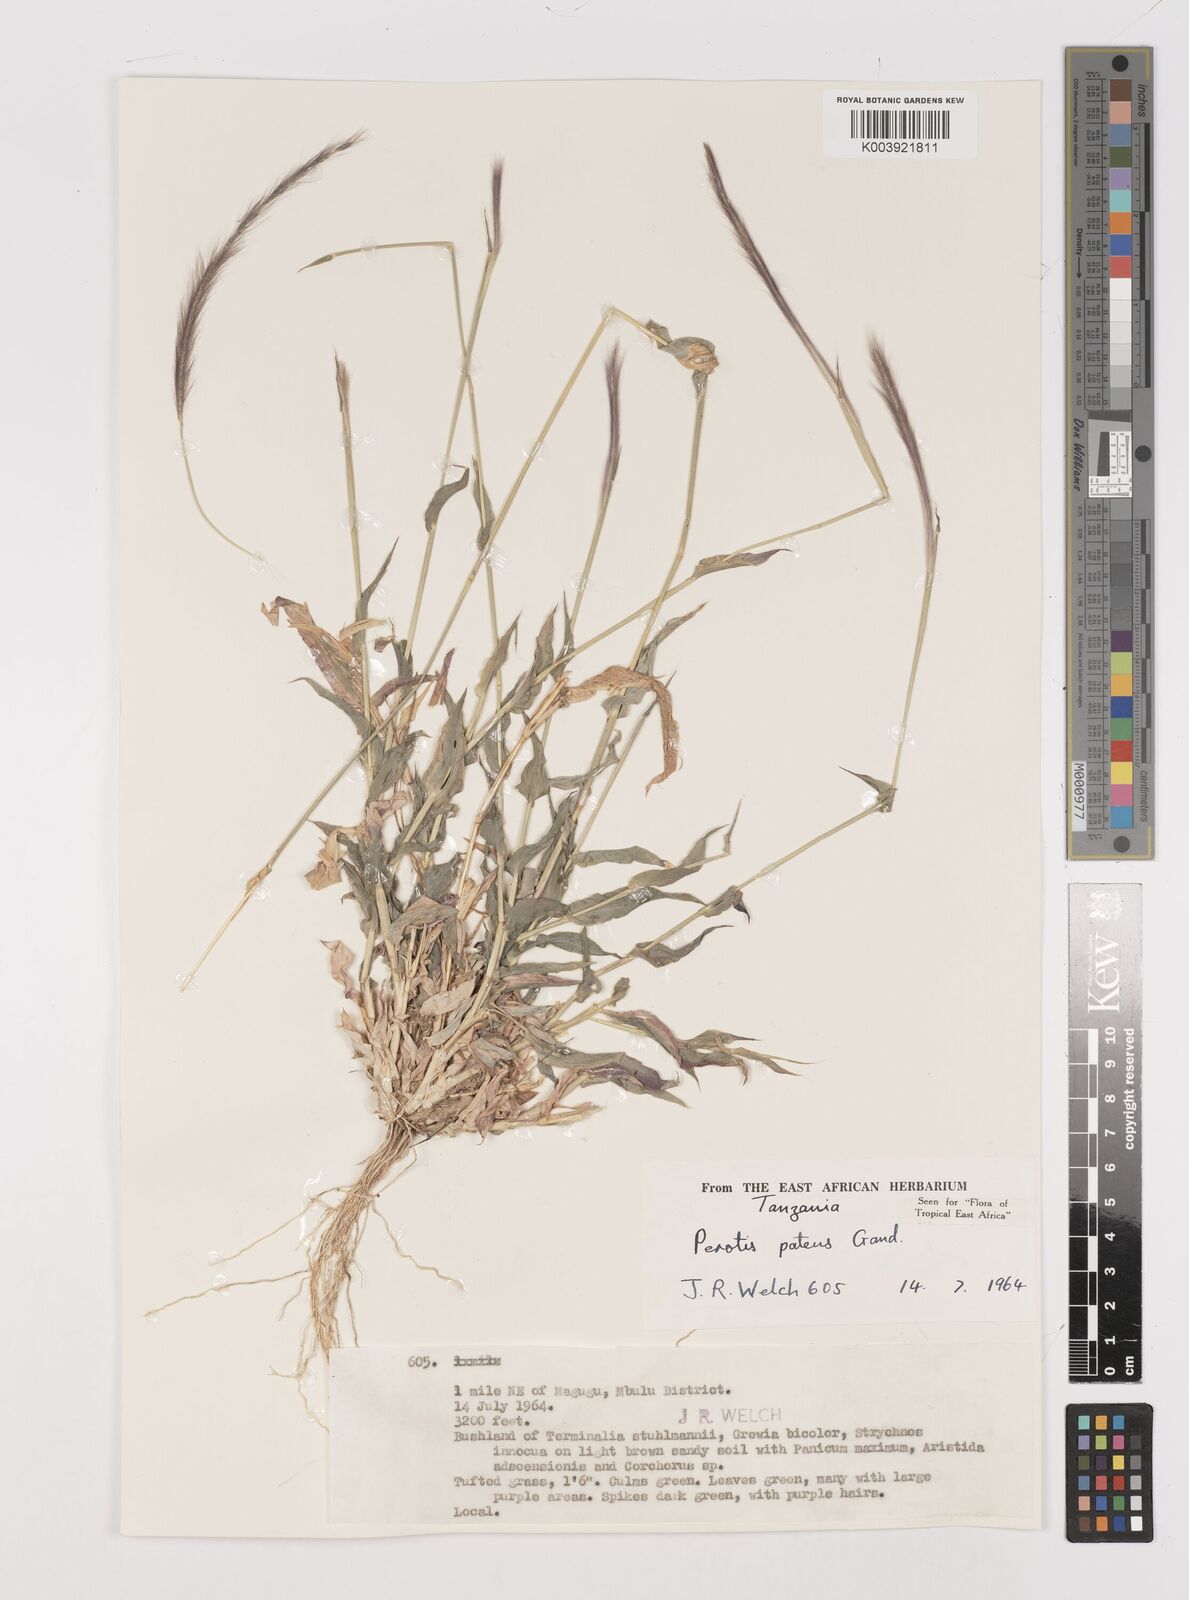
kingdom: Plantae
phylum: Tracheophyta
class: Liliopsida
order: Poales
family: Poaceae
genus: Perotis
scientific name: Perotis patens
